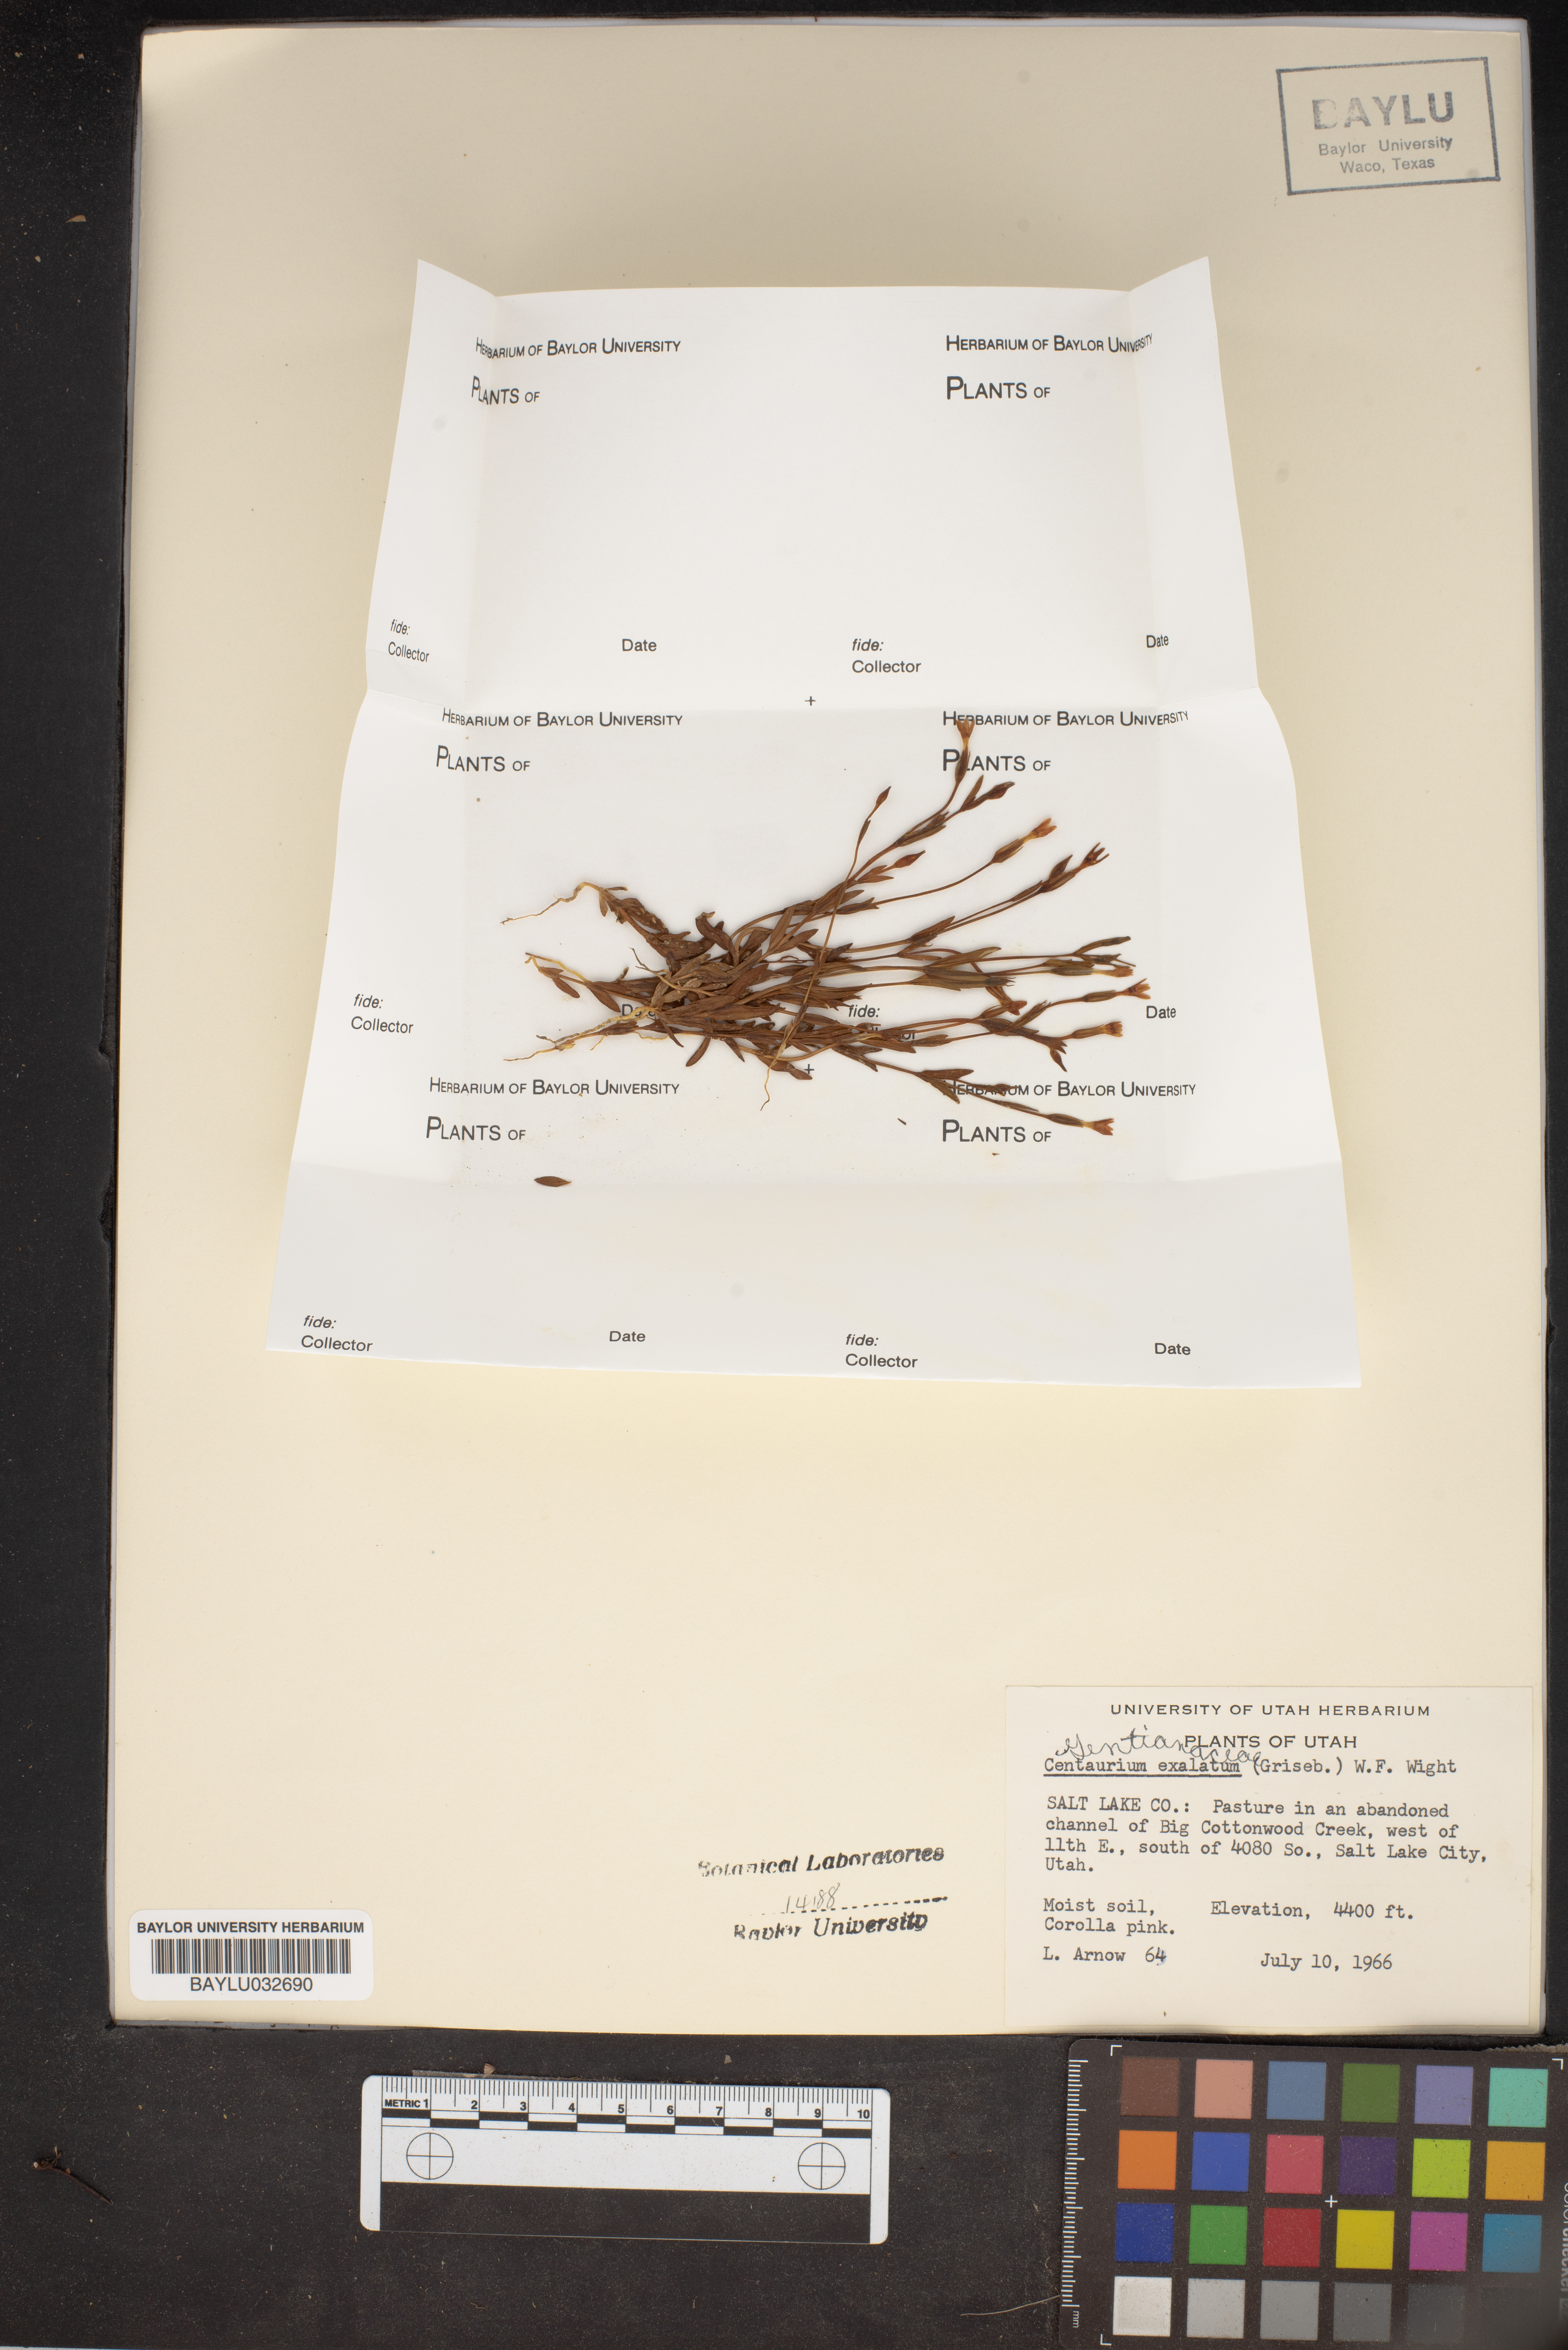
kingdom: Plantae
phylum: Tracheophyta
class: Magnoliopsida
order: Gentianales
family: Gentianaceae
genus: Zeltnera
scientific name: Zeltnera exaltata
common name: Great basin centaury
